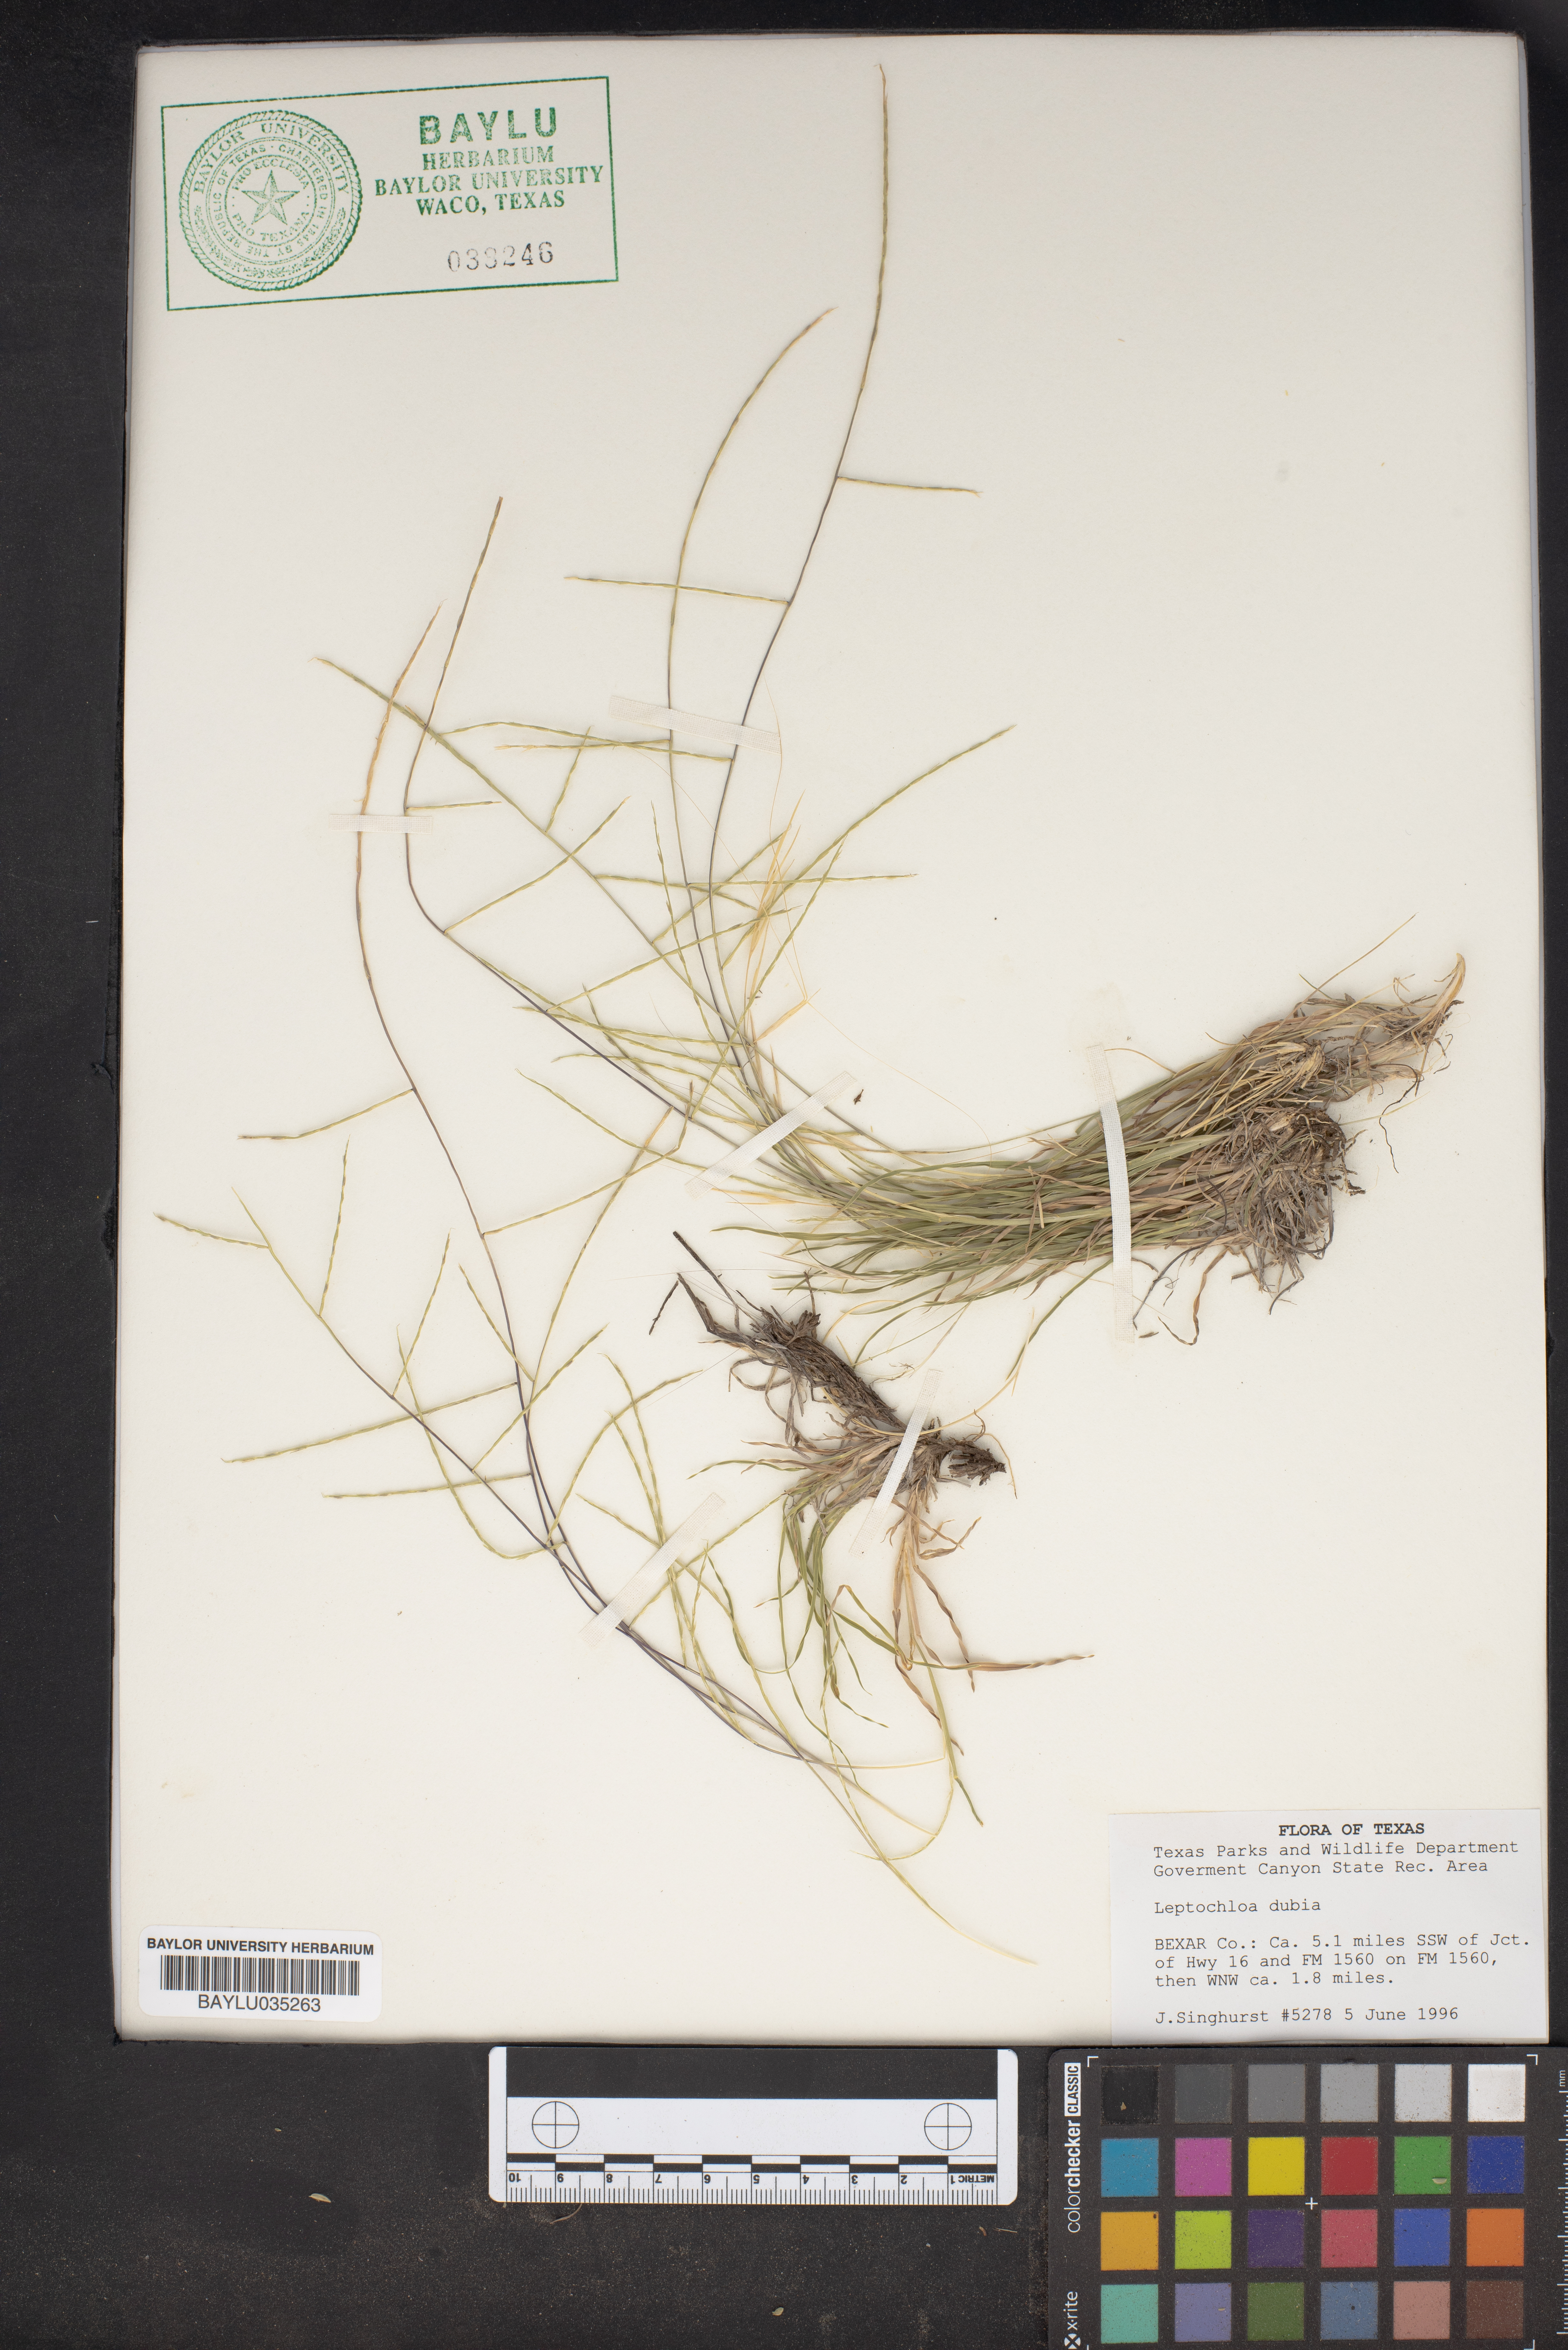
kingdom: Plantae
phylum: Tracheophyta
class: Liliopsida
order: Poales
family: Poaceae
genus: Disakisperma
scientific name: Disakisperma dubium
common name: Green sprangletop
